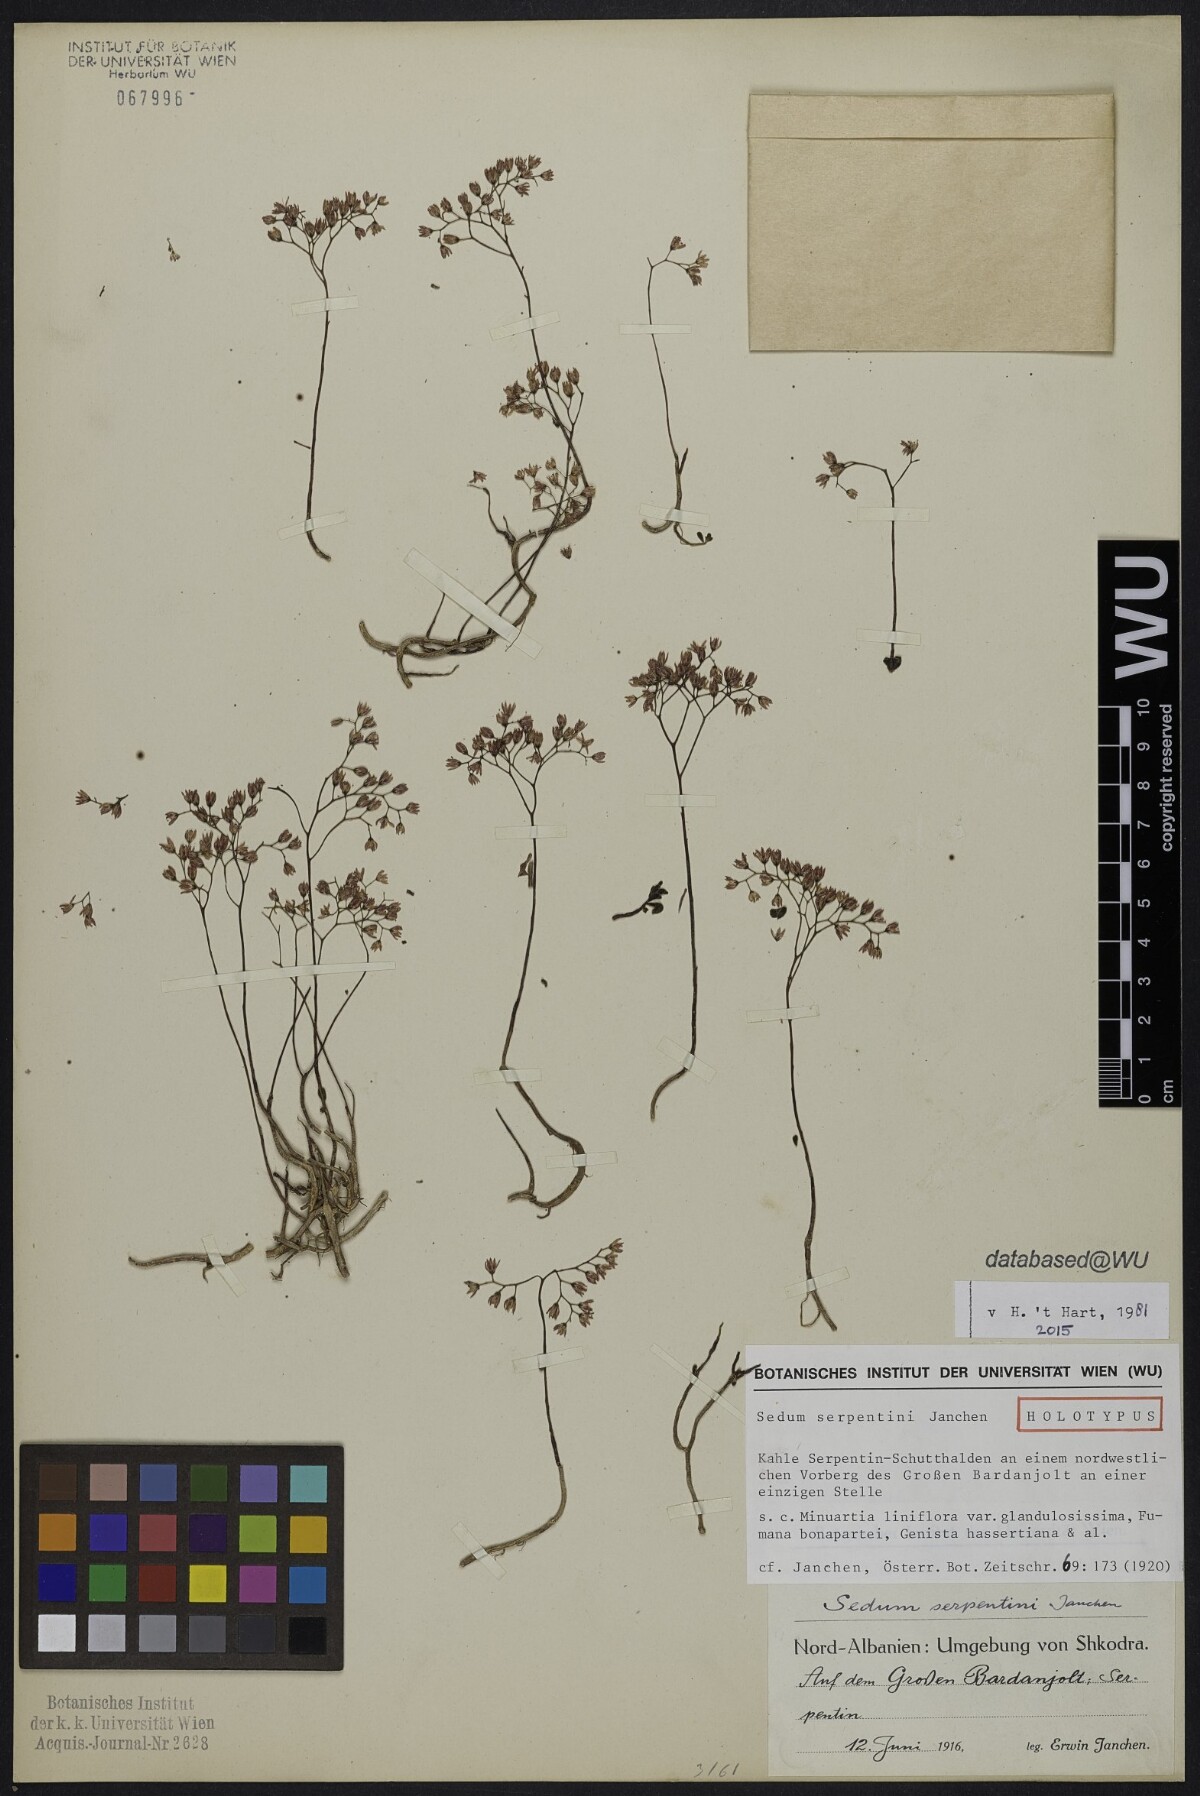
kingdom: Plantae
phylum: Tracheophyta
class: Magnoliopsida
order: Saxifragales
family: Crassulaceae
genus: Sedum
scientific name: Sedum album
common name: White stonecrop
